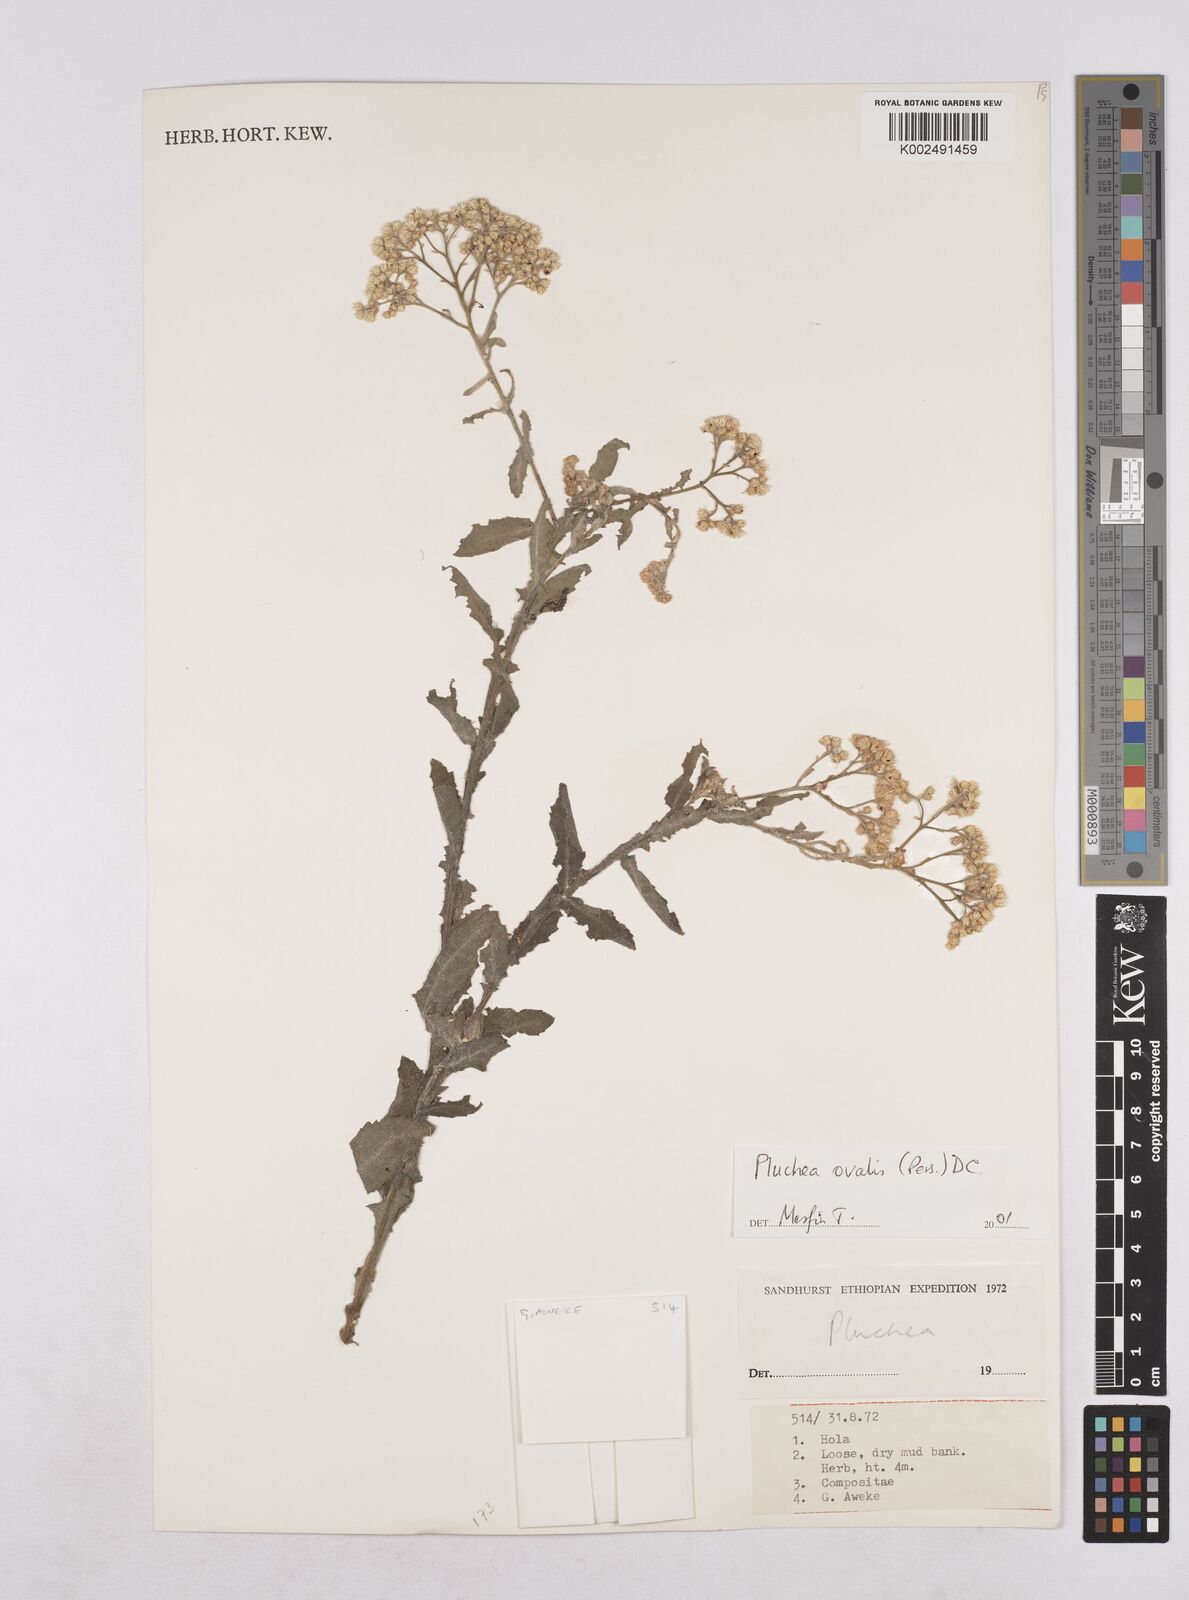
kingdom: Plantae
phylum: Tracheophyta
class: Magnoliopsida
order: Asterales
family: Asteraceae
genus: Pluchea
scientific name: Pluchea ovalis
